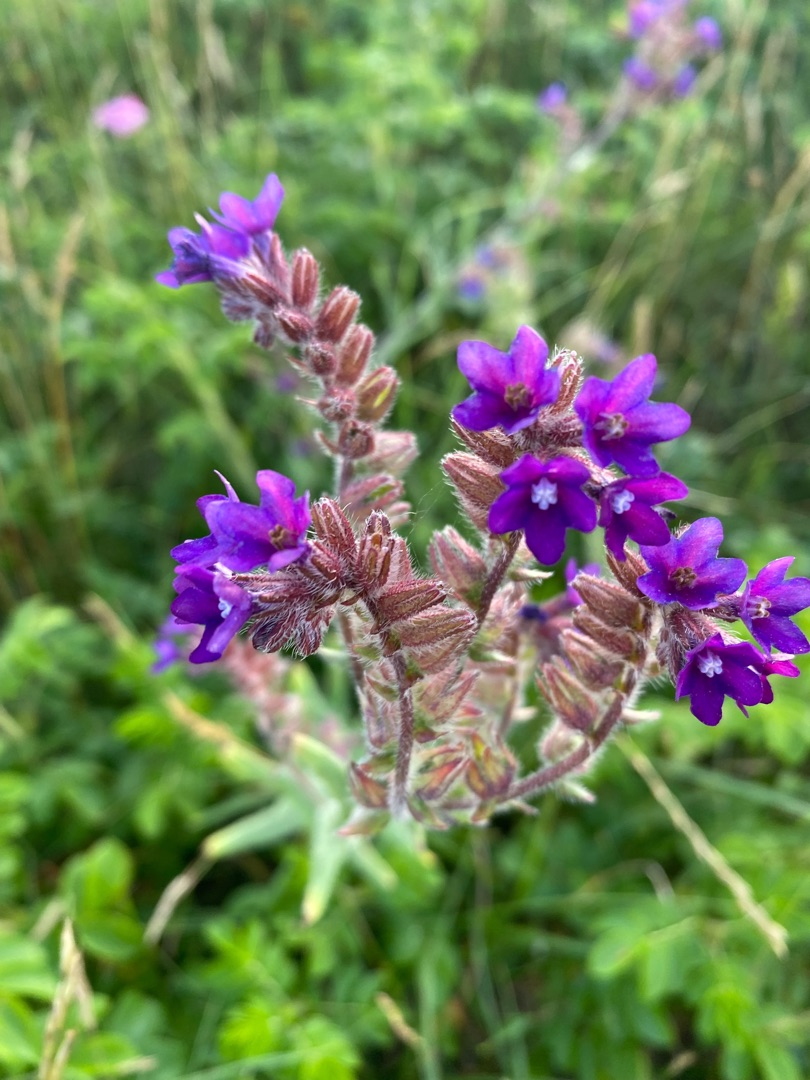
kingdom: Plantae
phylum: Tracheophyta
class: Magnoliopsida
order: Boraginales
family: Boraginaceae
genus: Anchusa
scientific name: Anchusa officinalis
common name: Læge-oksetunge
